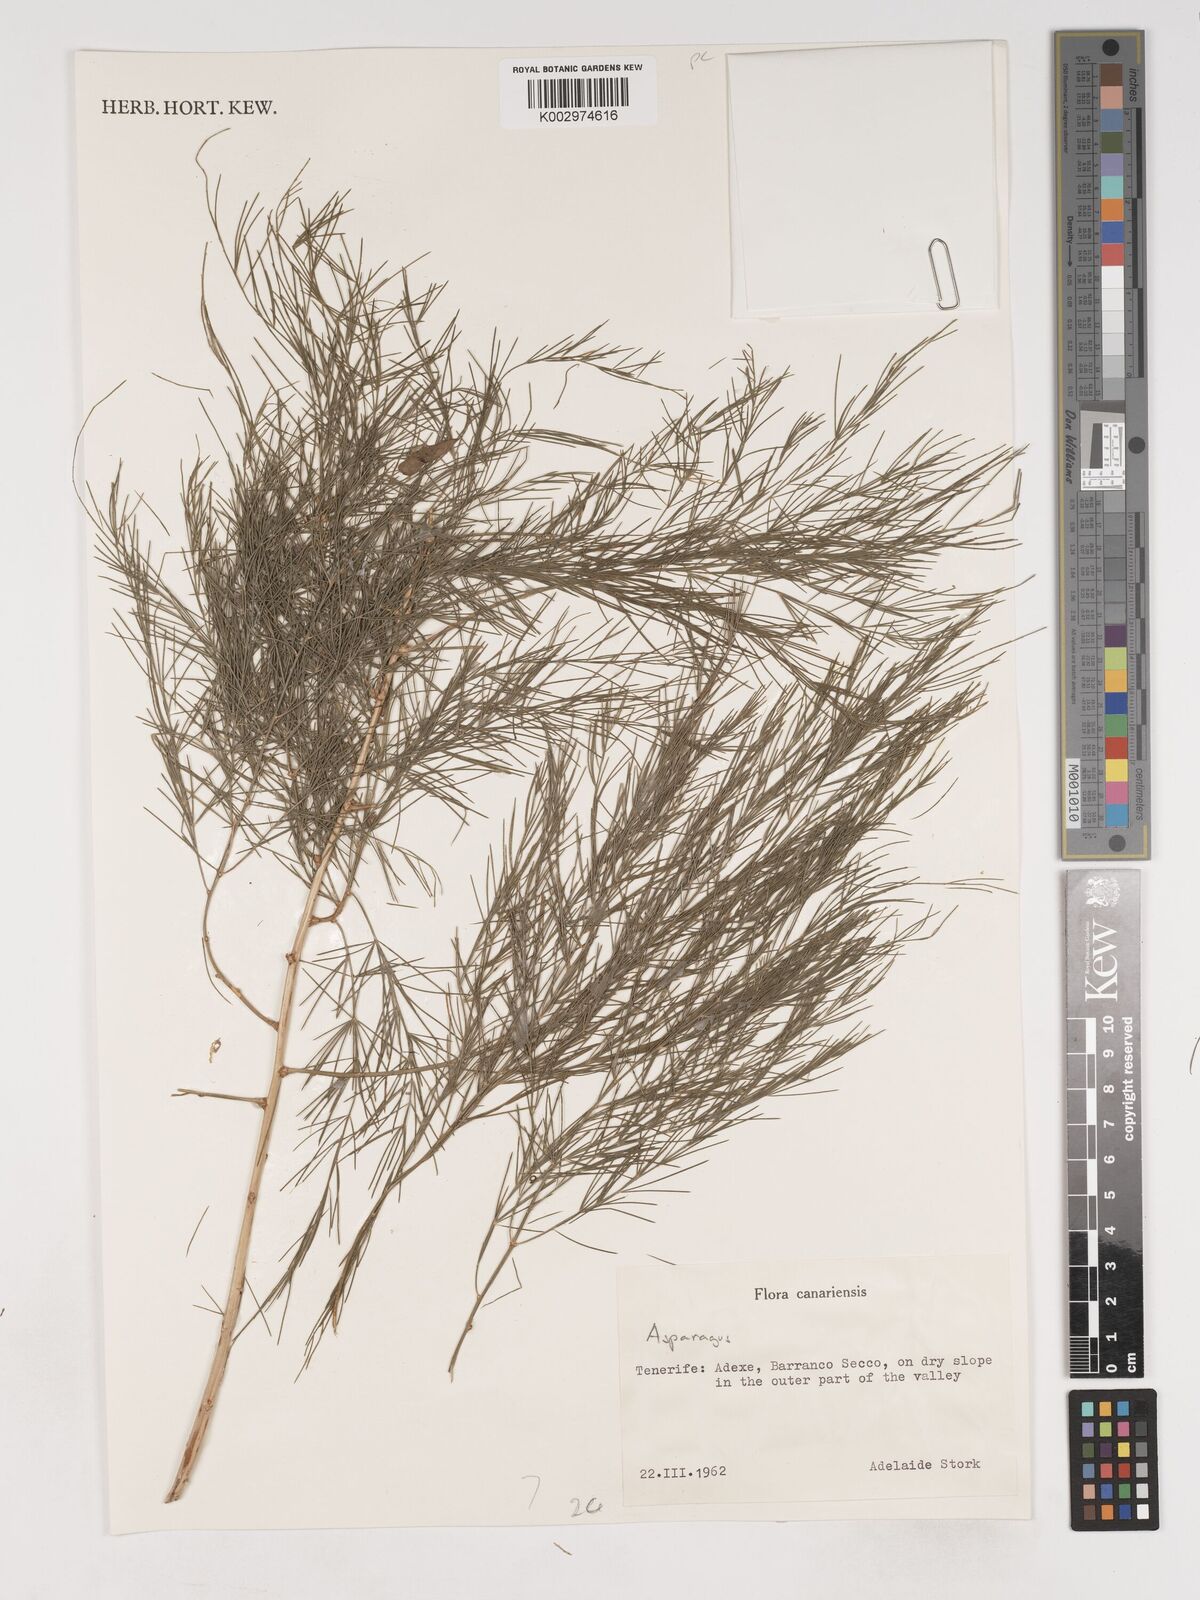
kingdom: Plantae
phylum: Tracheophyta
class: Liliopsida
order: Asparagales
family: Asparagaceae
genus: Asparagus
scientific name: Asparagus
